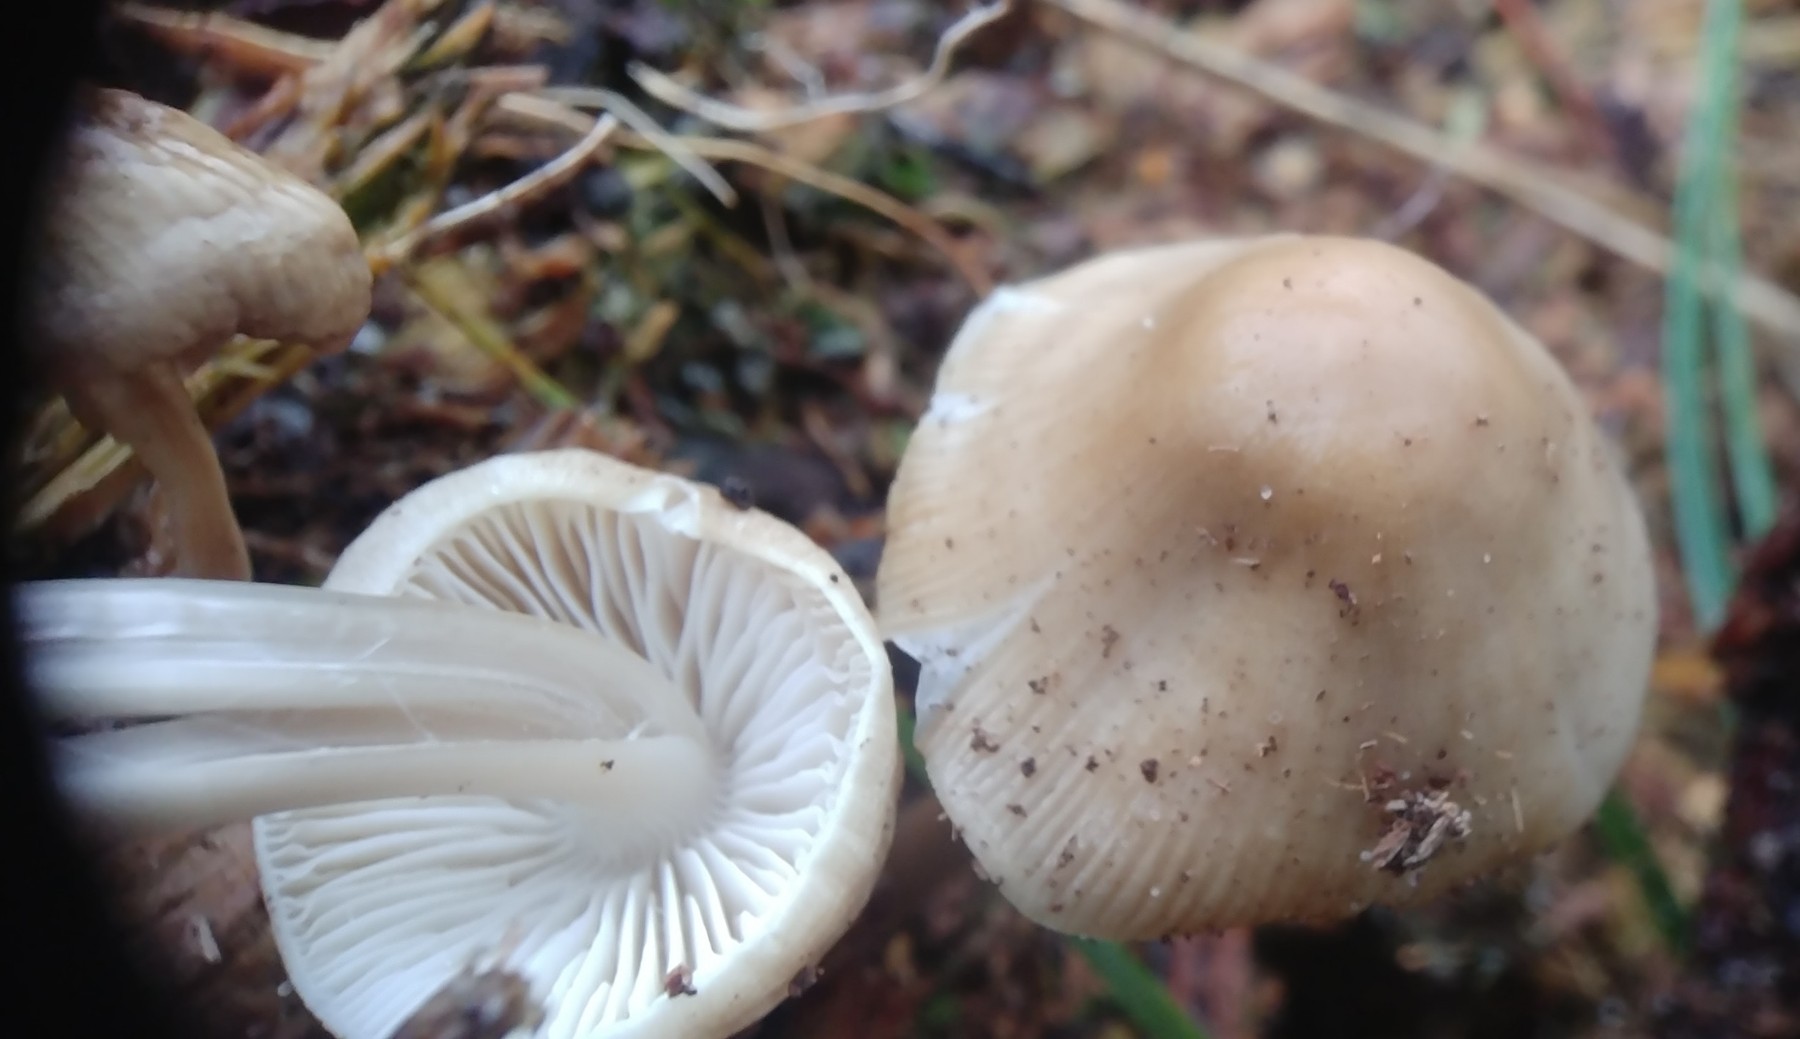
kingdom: Fungi
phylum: Basidiomycota
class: Agaricomycetes
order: Agaricales
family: Mycenaceae
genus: Mycena
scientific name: Mycena galericulata
